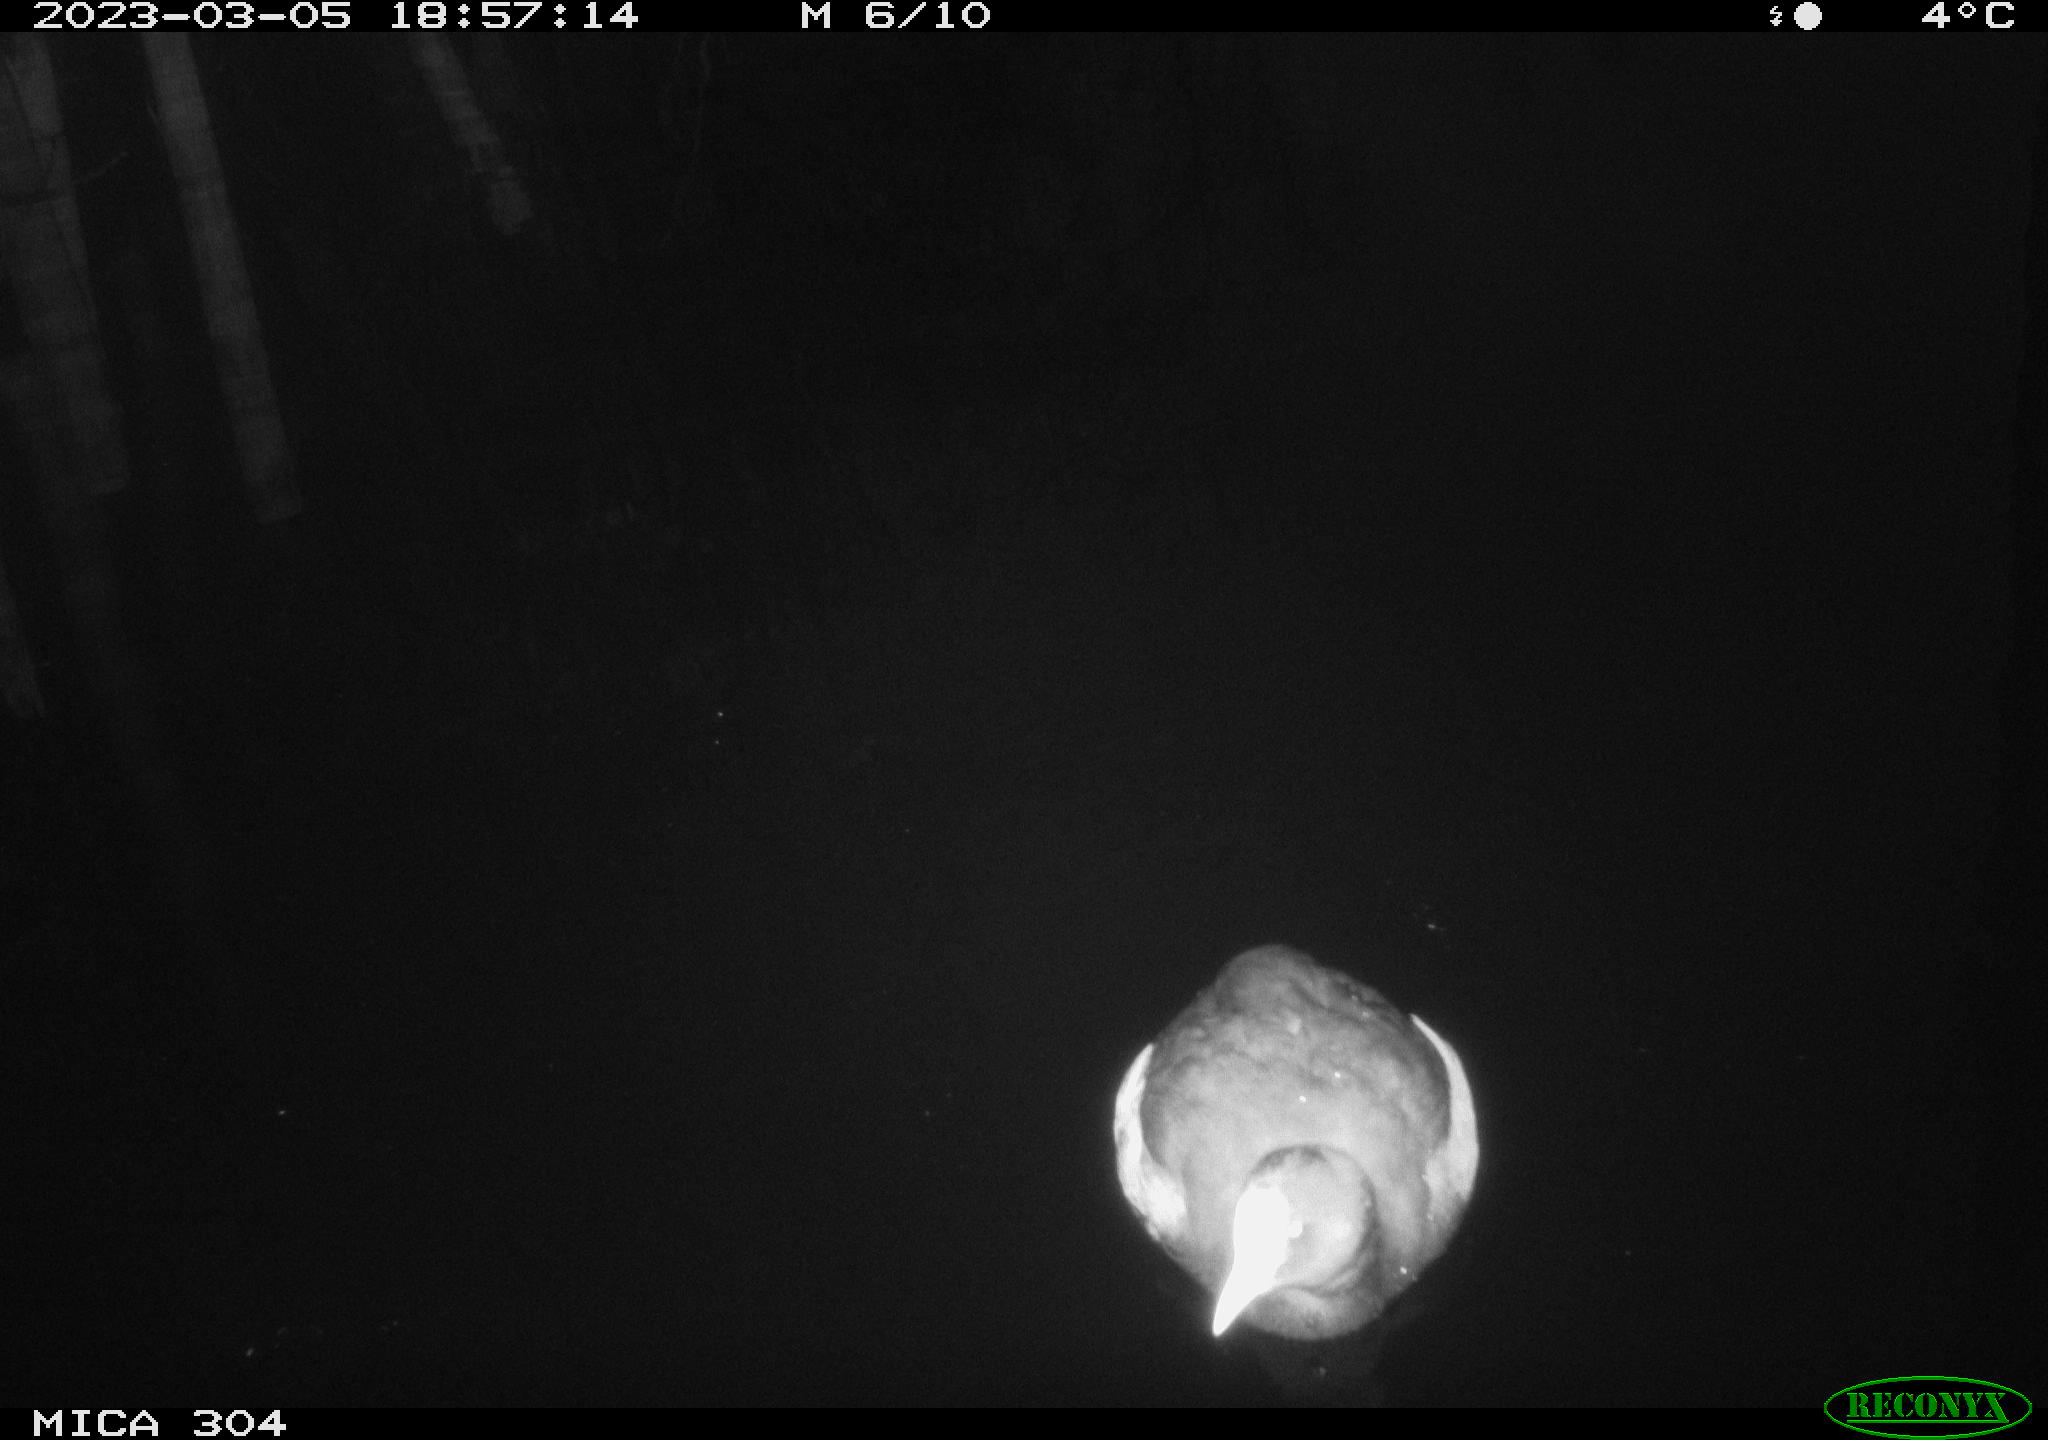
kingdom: Animalia
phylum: Chordata
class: Aves
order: Anseriformes
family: Anatidae
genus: Anas
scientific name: Anas
